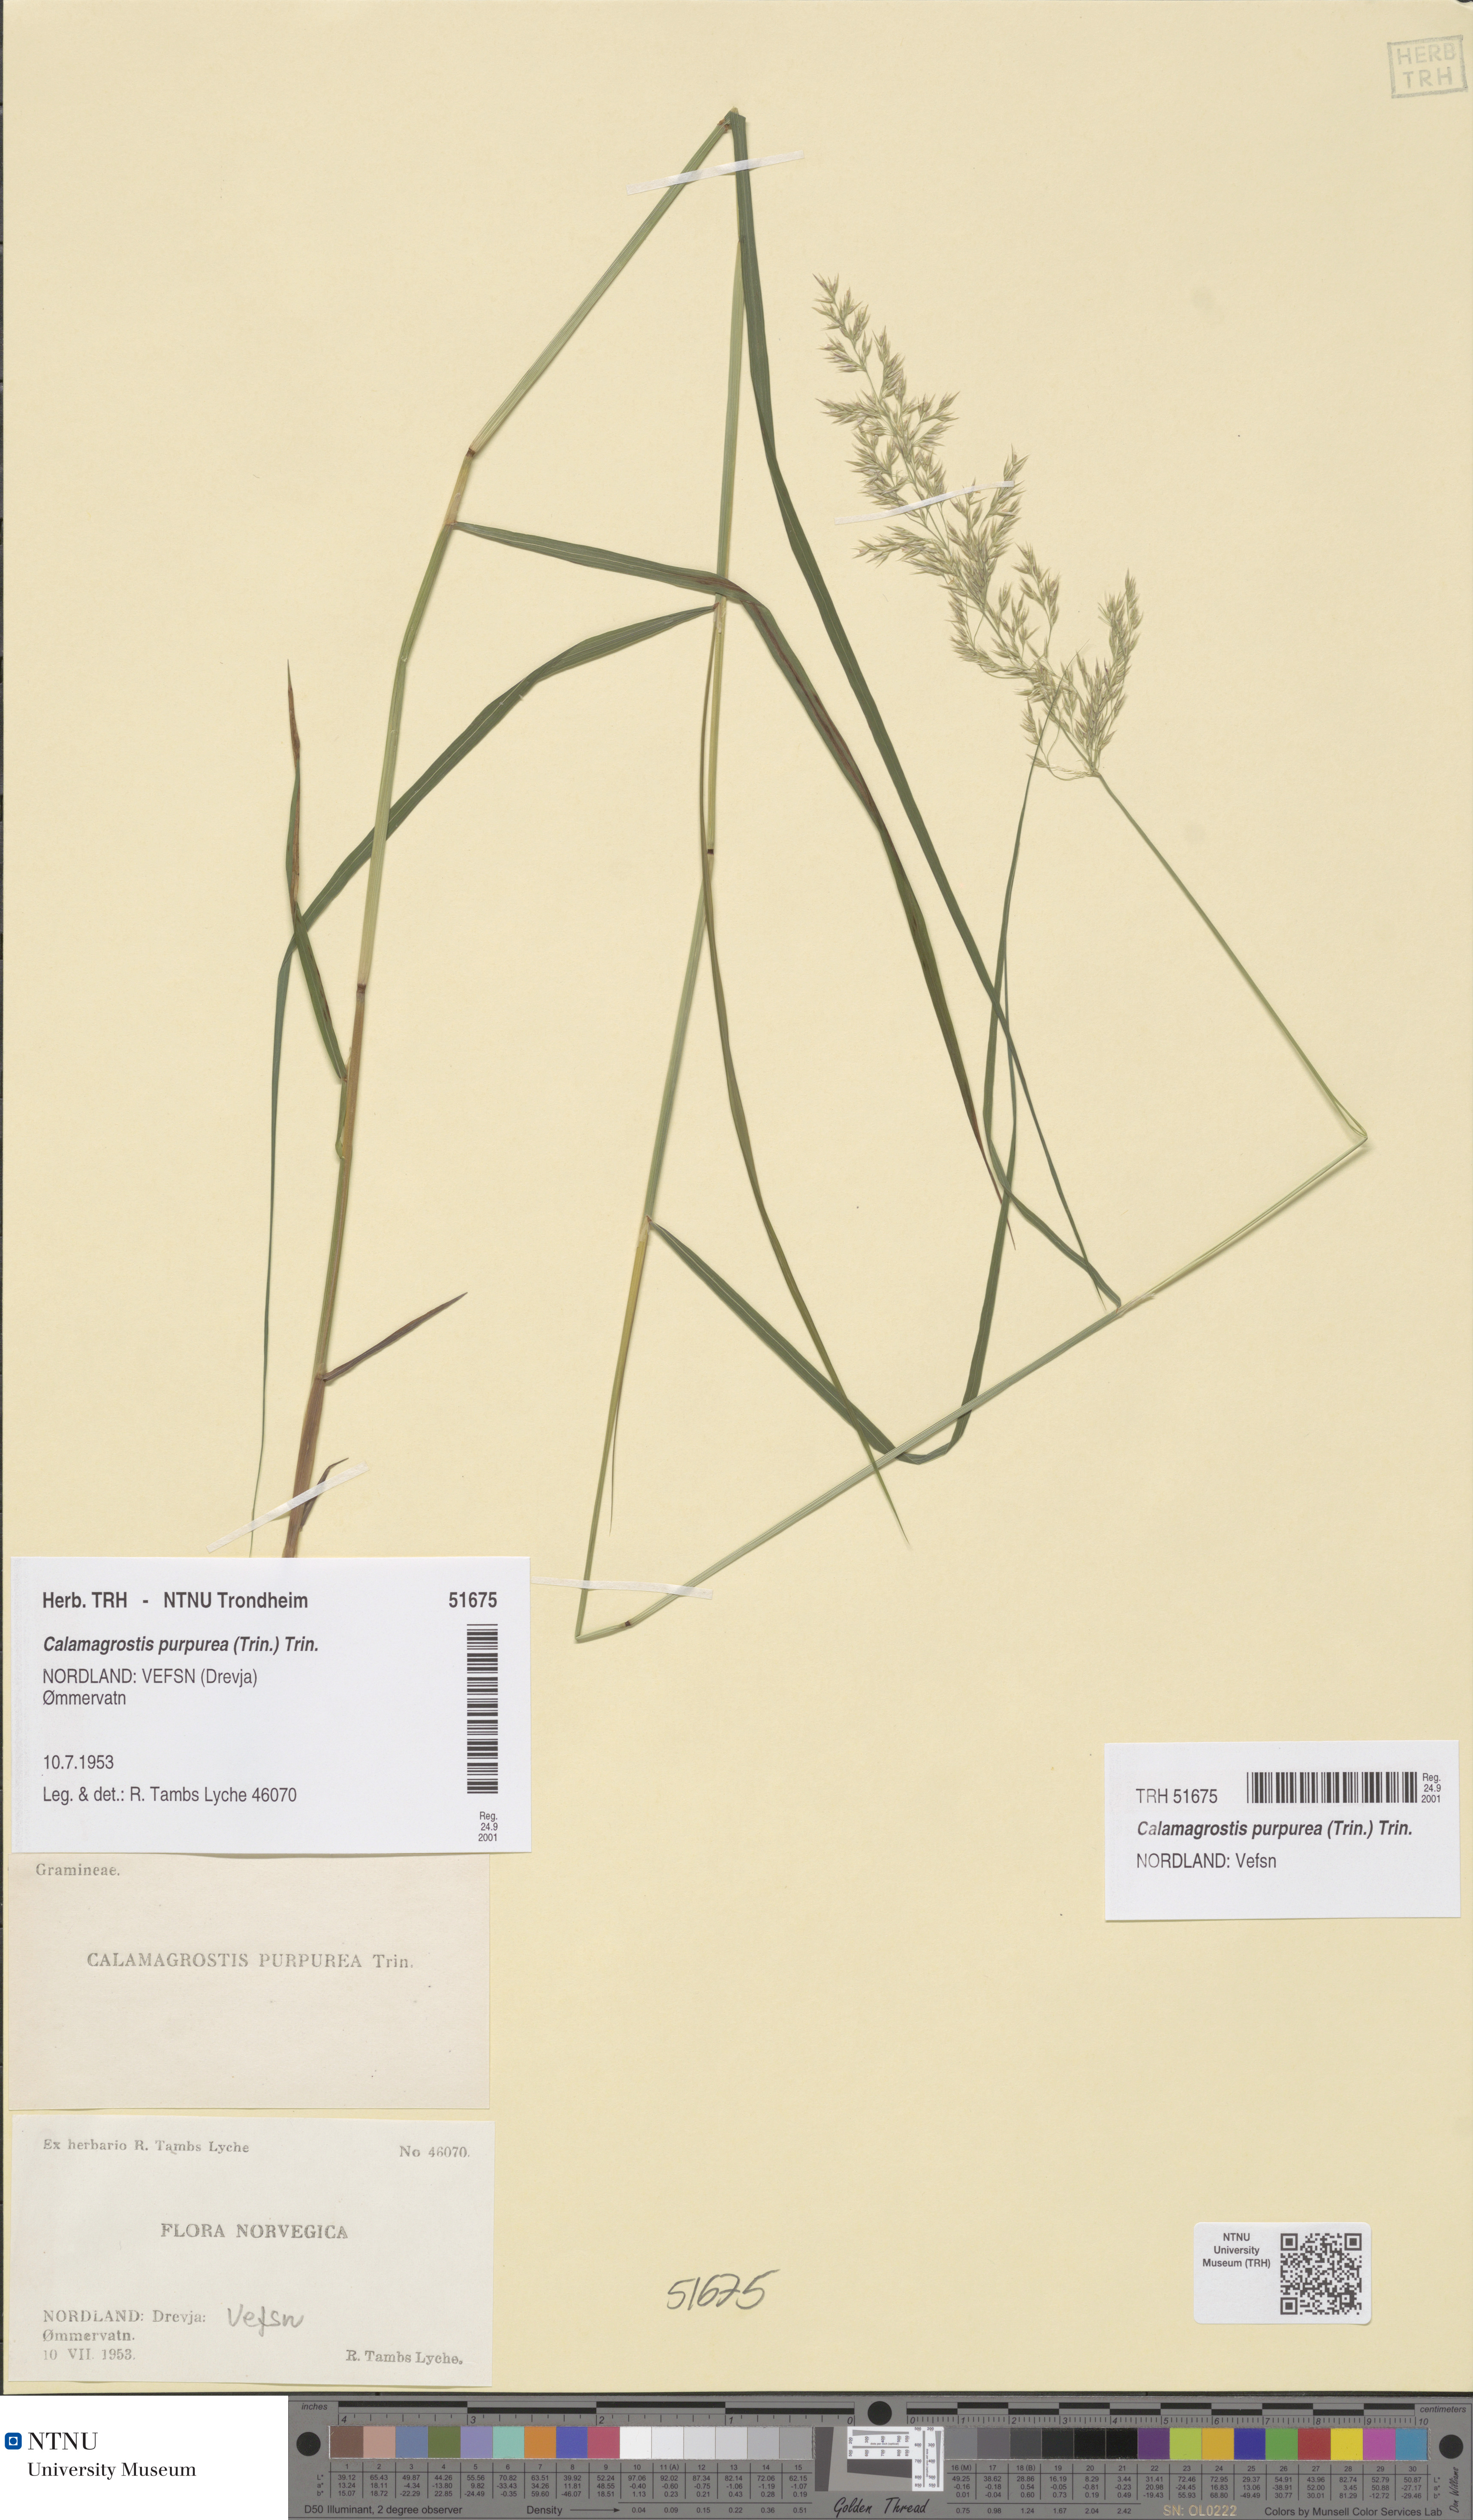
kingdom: Plantae
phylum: Tracheophyta
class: Liliopsida
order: Poales
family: Poaceae
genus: Calamagrostis
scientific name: Calamagrostis purpurea
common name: Scandinavian small-reed
